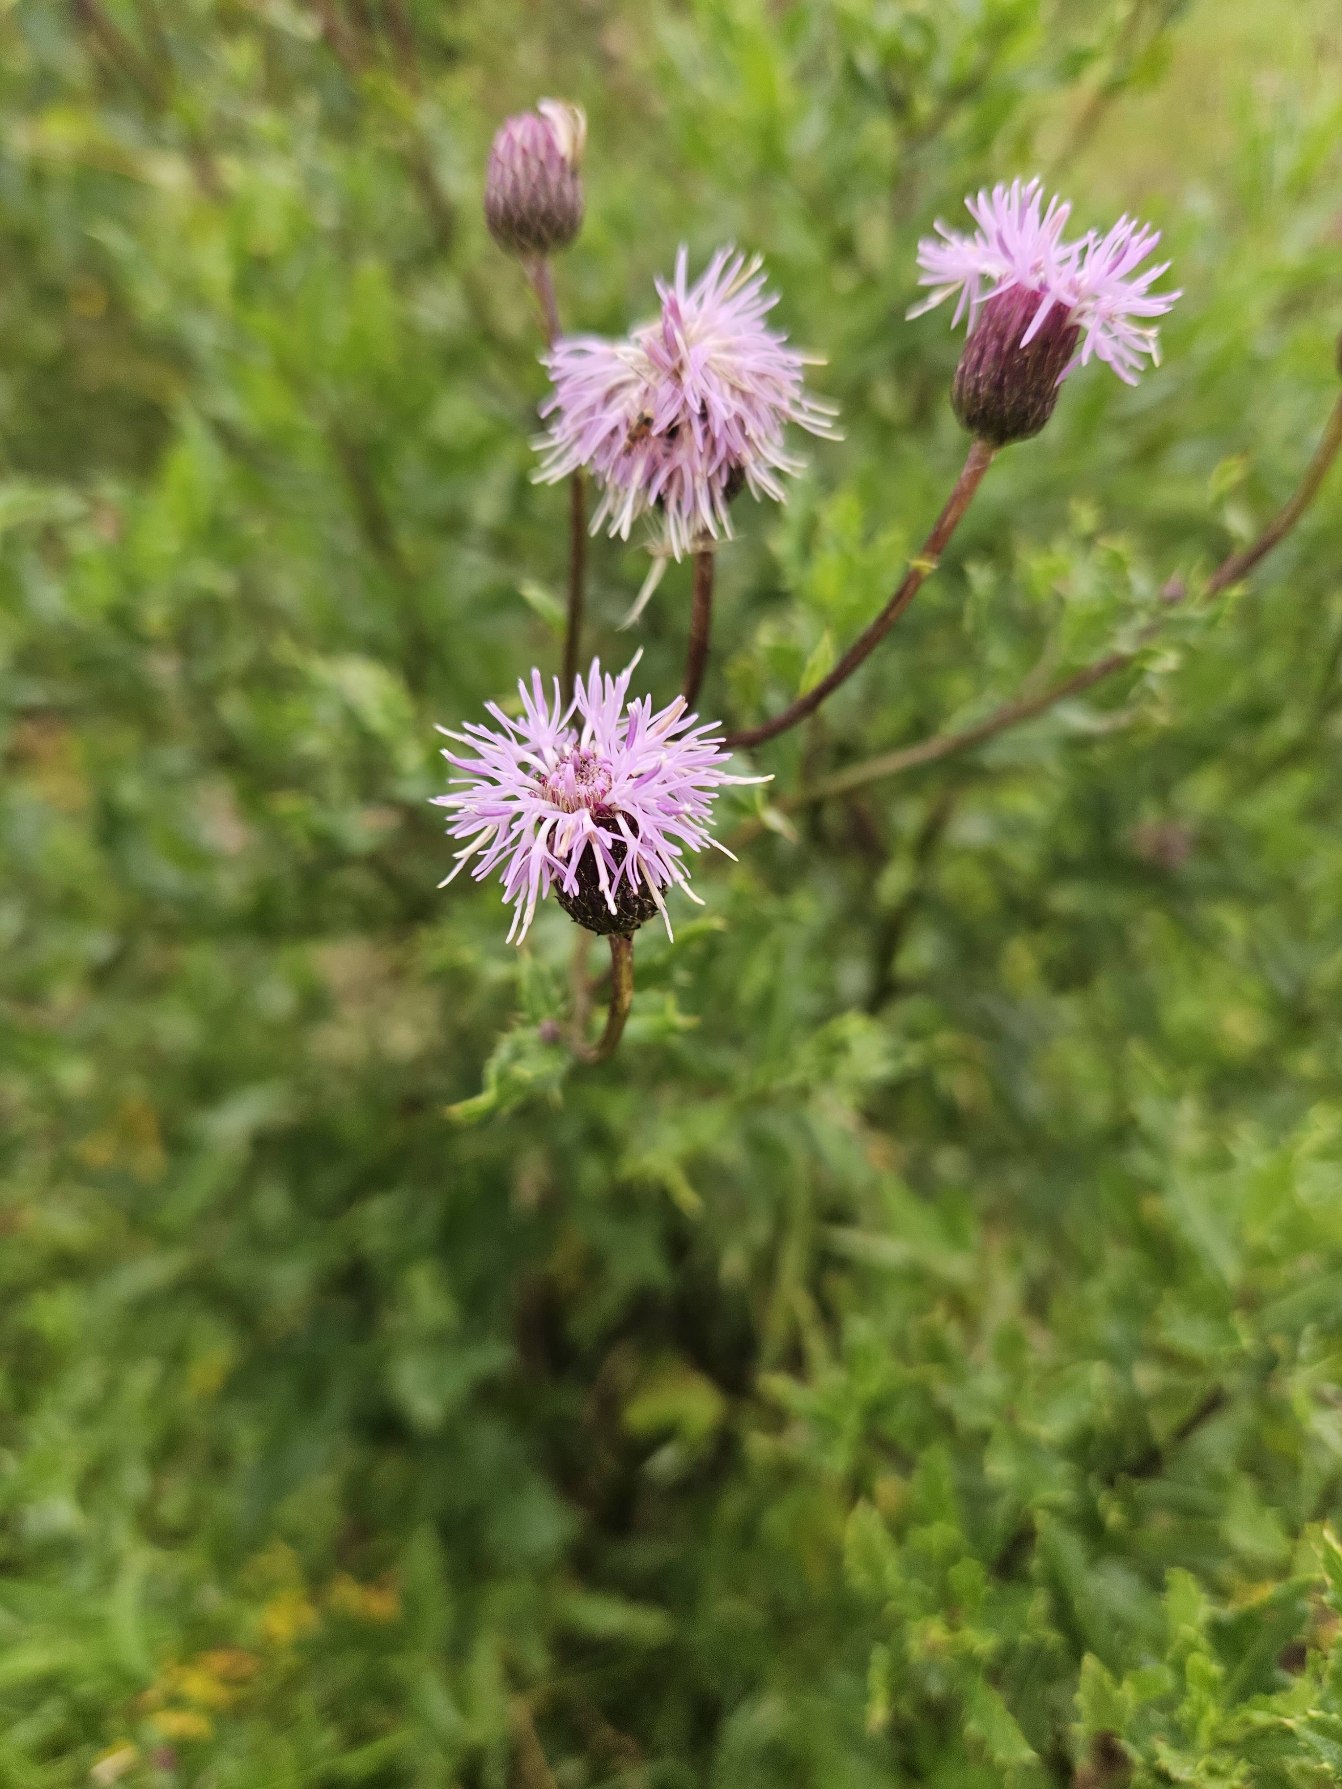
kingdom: Plantae
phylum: Tracheophyta
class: Magnoliopsida
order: Asterales
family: Asteraceae
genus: Cirsium
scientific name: Cirsium arvense
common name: Ager-tidsel
